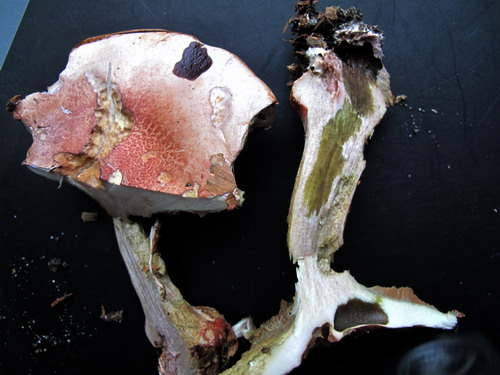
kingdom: Fungi
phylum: Basidiomycota
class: Agaricomycetes
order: Agaricales
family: Cortinariaceae
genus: Calonarius
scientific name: Calonarius rufo-olivaceus
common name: firefarvet slørhat
